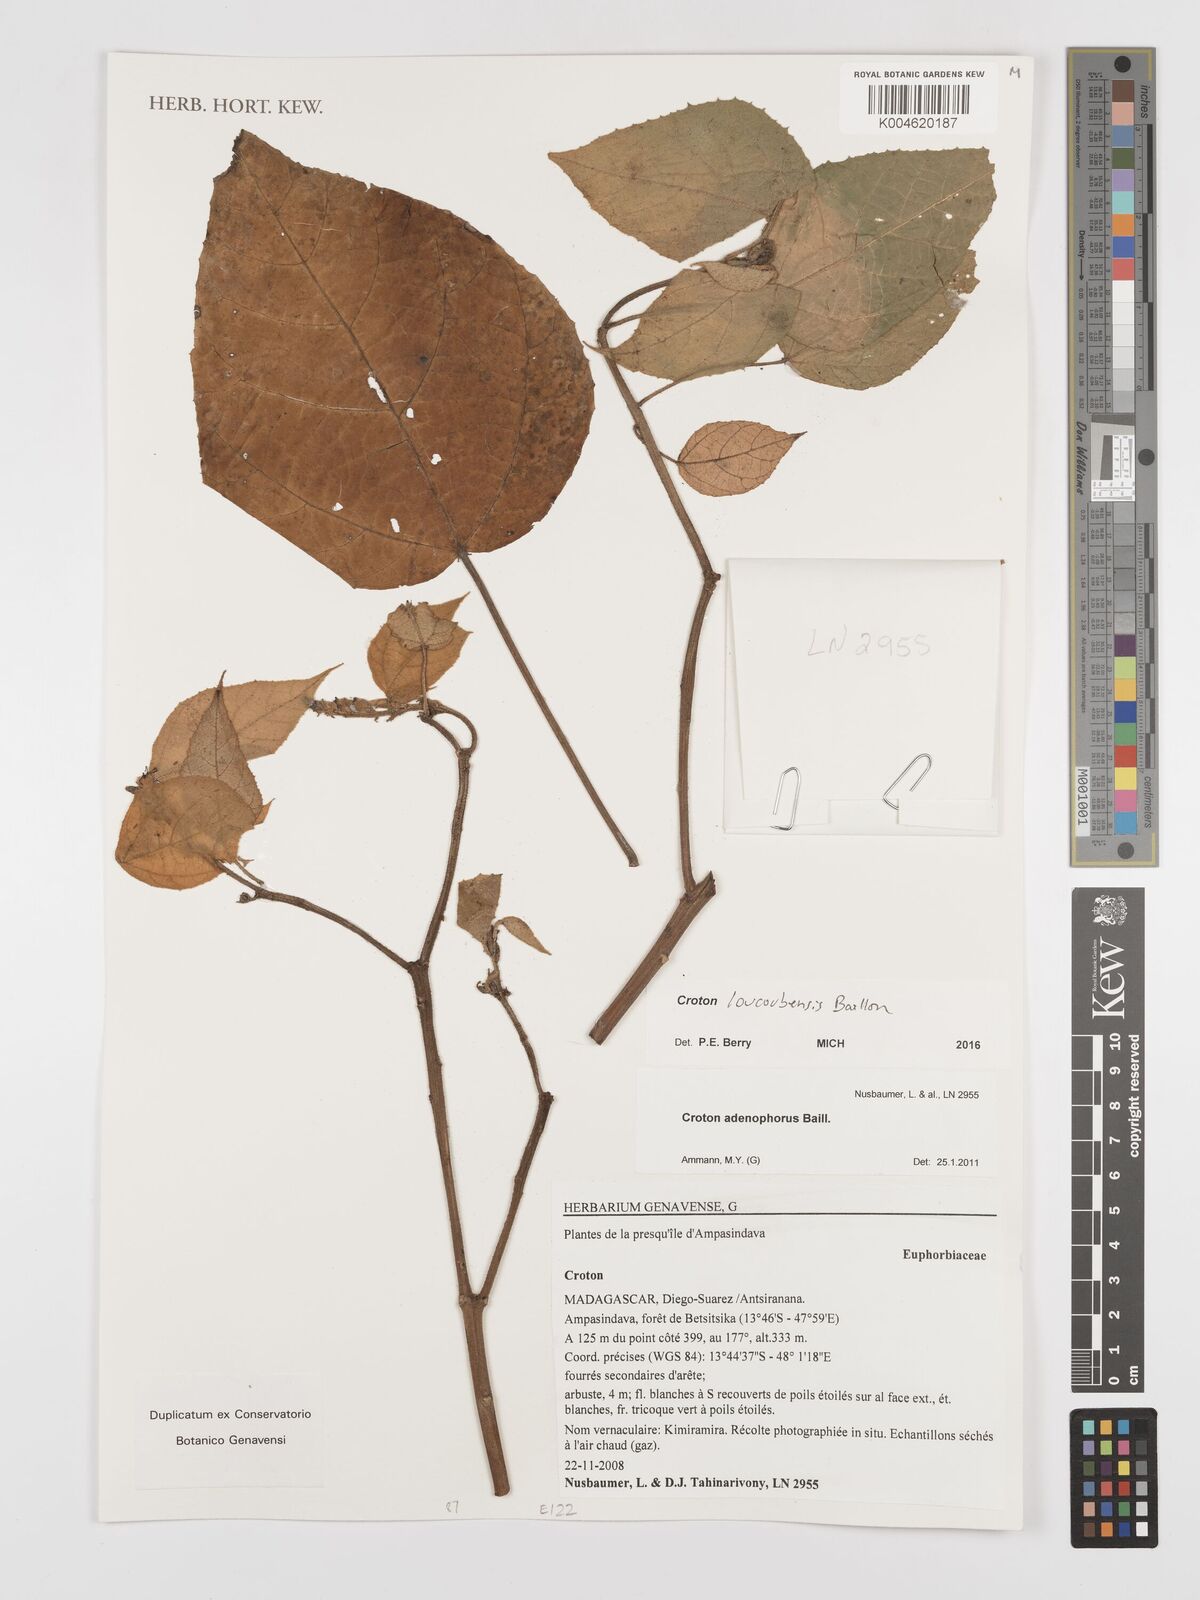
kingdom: Plantae
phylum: Tracheophyta
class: Magnoliopsida
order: Malpighiales
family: Euphorbiaceae
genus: Croton
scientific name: Croton loucoubensis
